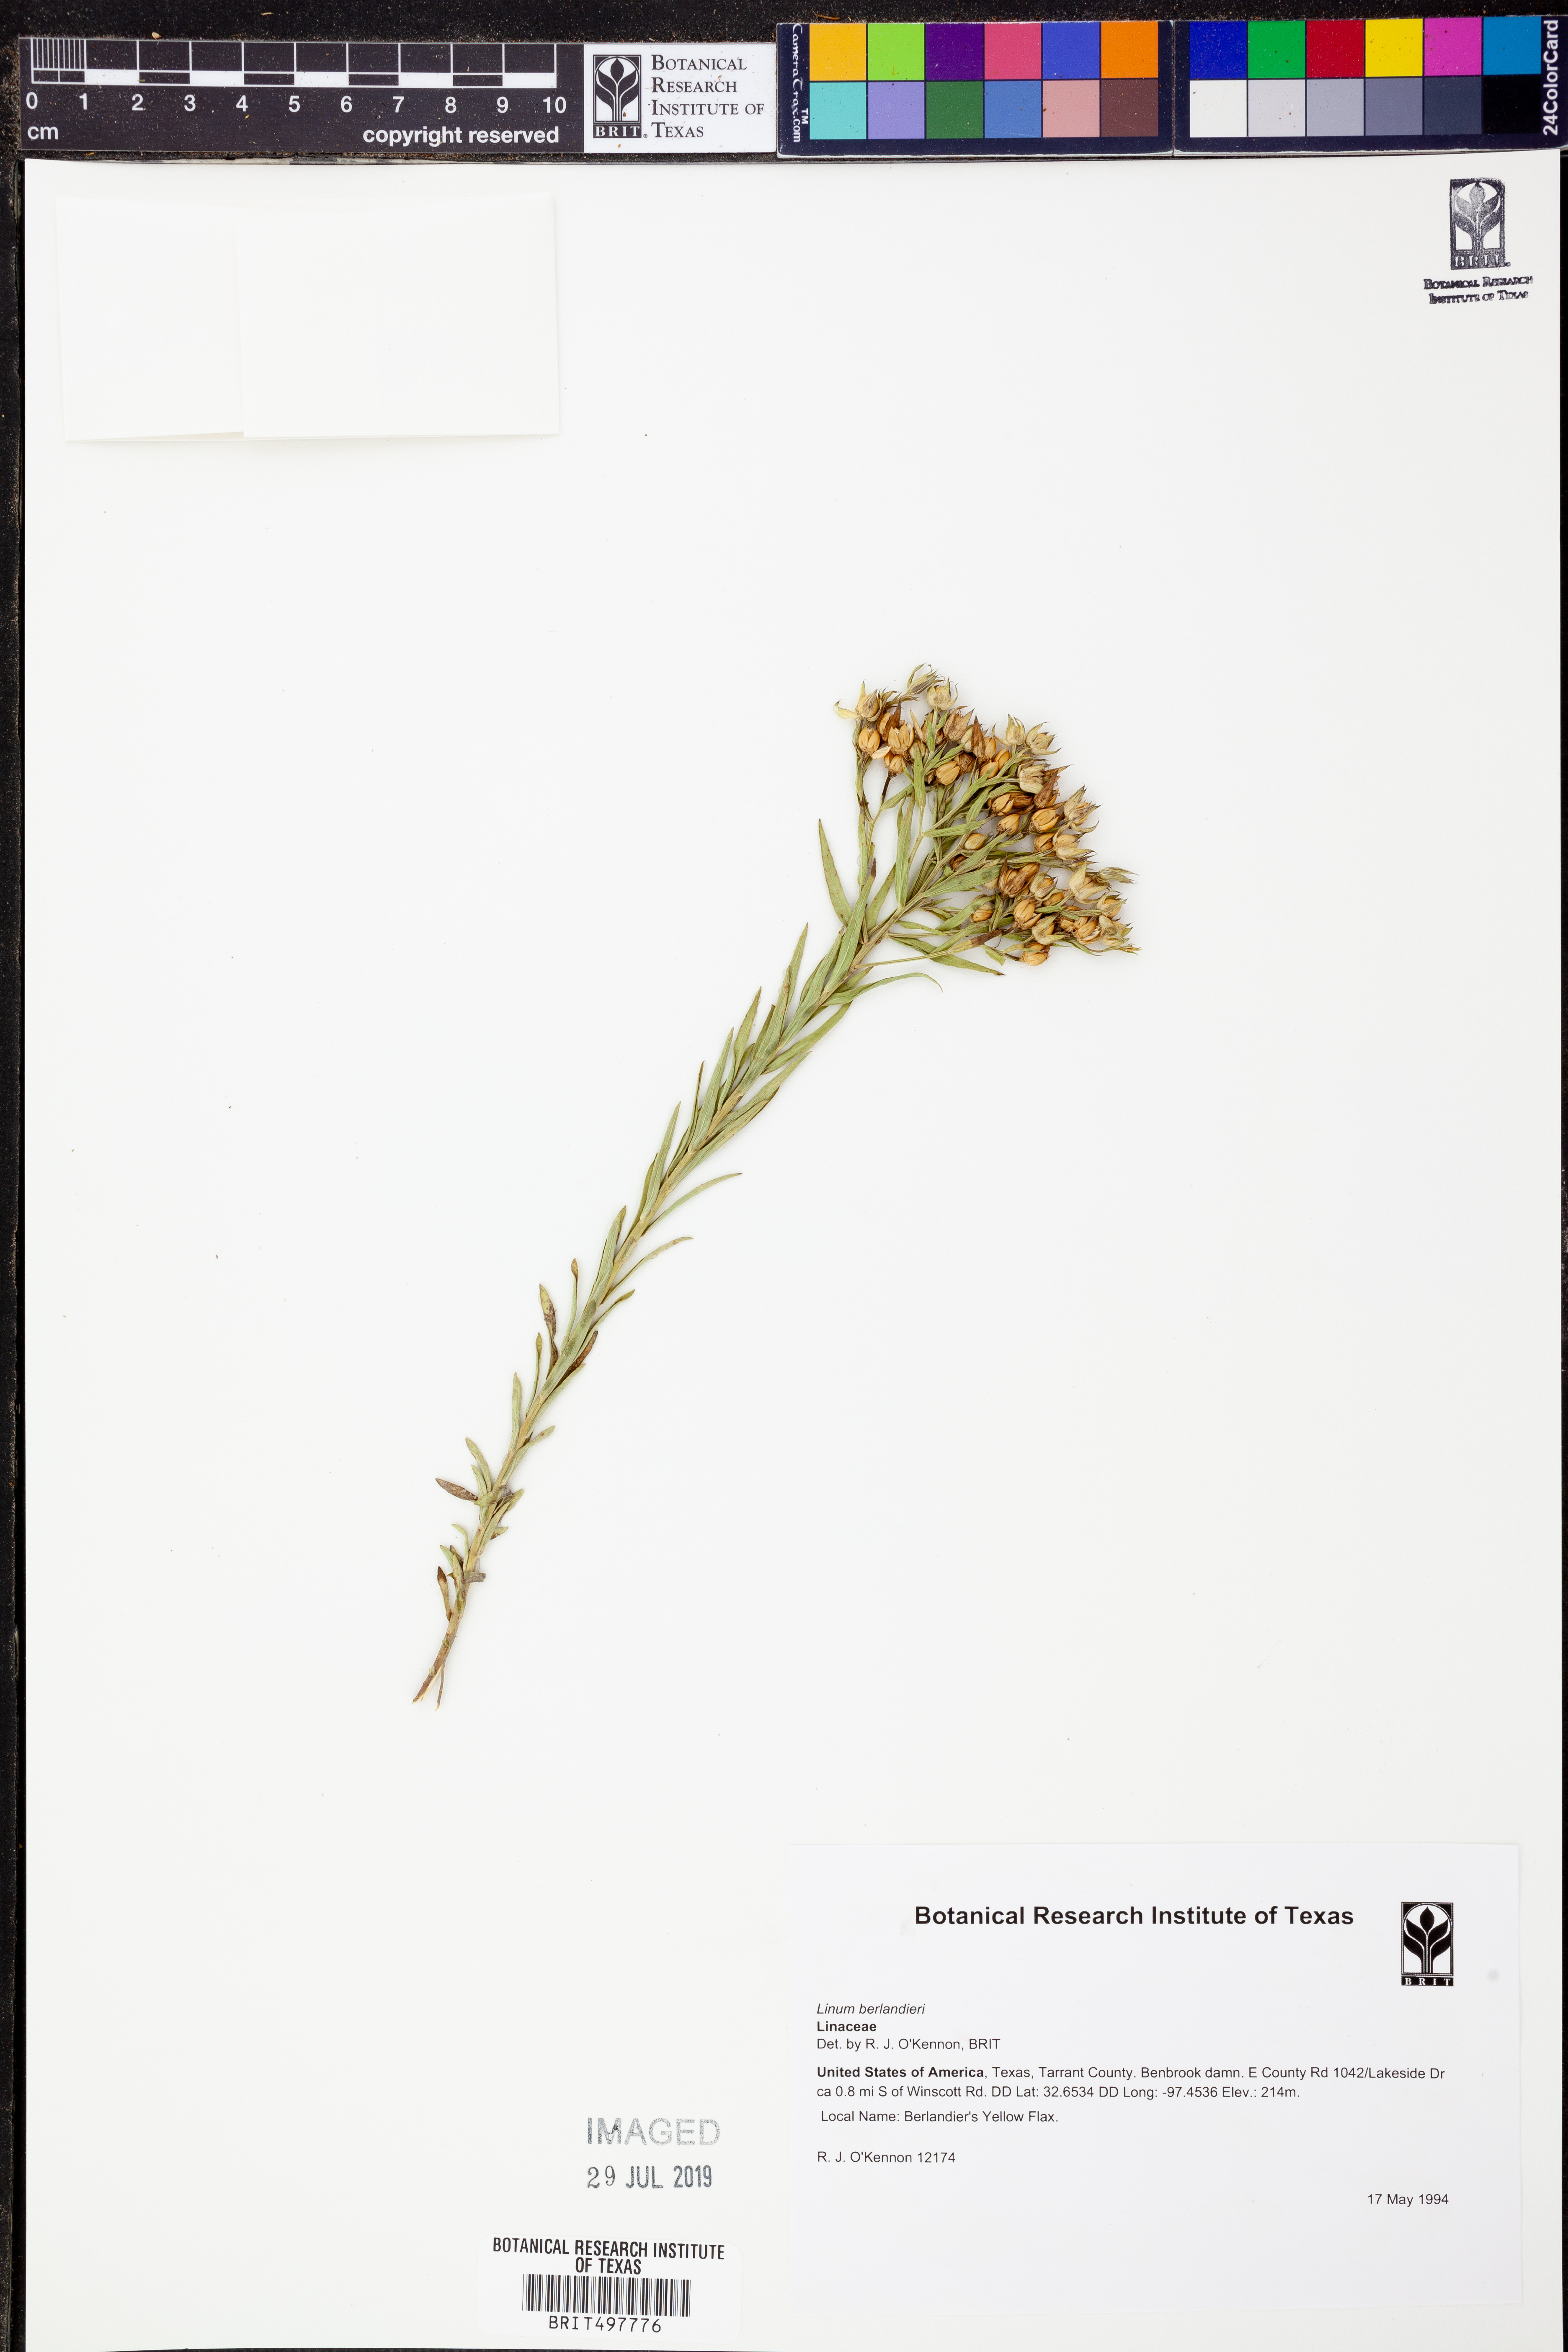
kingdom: Plantae
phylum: Tracheophyta
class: Magnoliopsida
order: Malpighiales
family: Linaceae
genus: Linum
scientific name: Linum berlandieri
